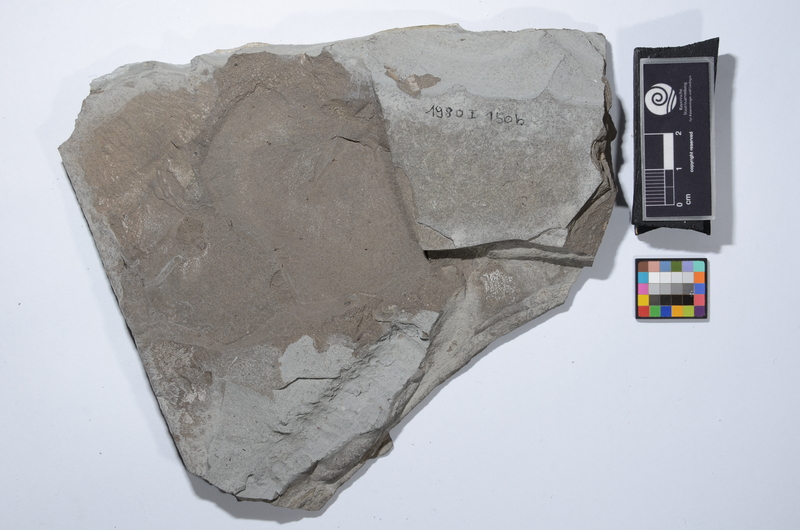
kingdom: Animalia
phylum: Chordata
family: Pachycormidae
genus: Euthynotus
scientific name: Euthynotus intermedius
